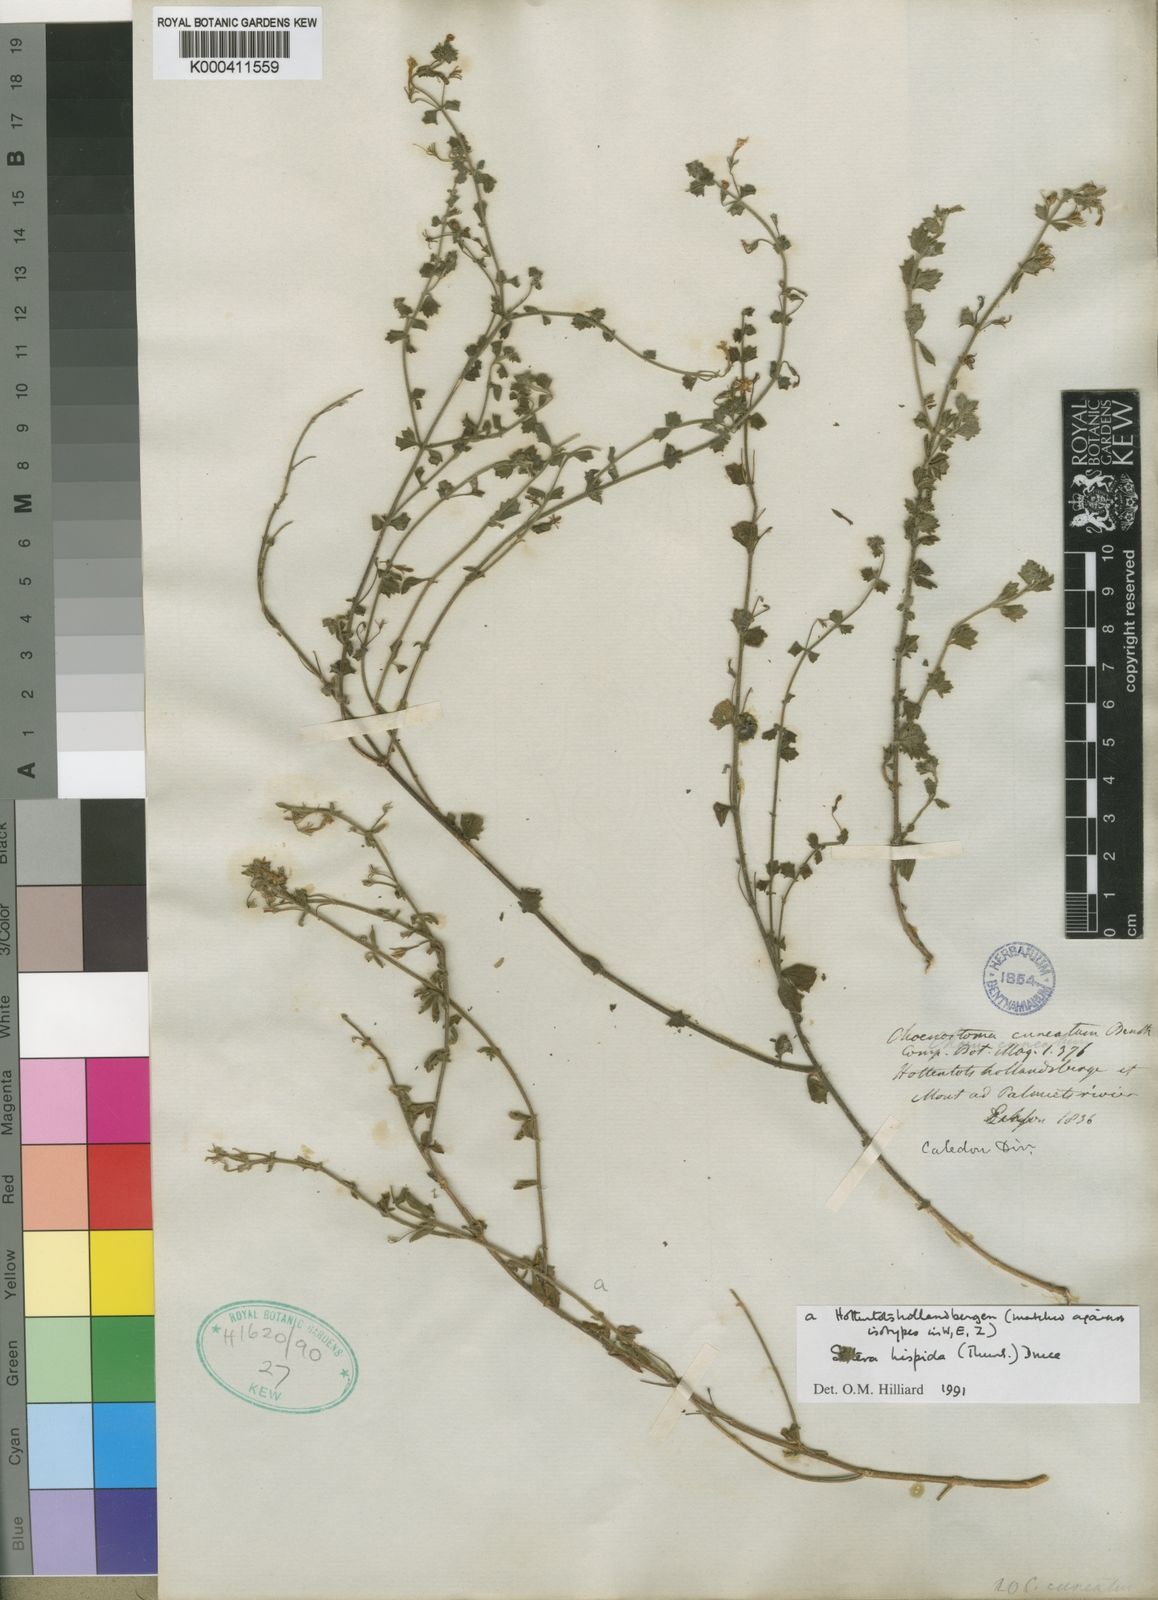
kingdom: Plantae
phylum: Tracheophyta
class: Magnoliopsida
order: Lamiales
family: Scrophulariaceae
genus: Chaenostoma
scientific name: Chaenostoma hispidum
